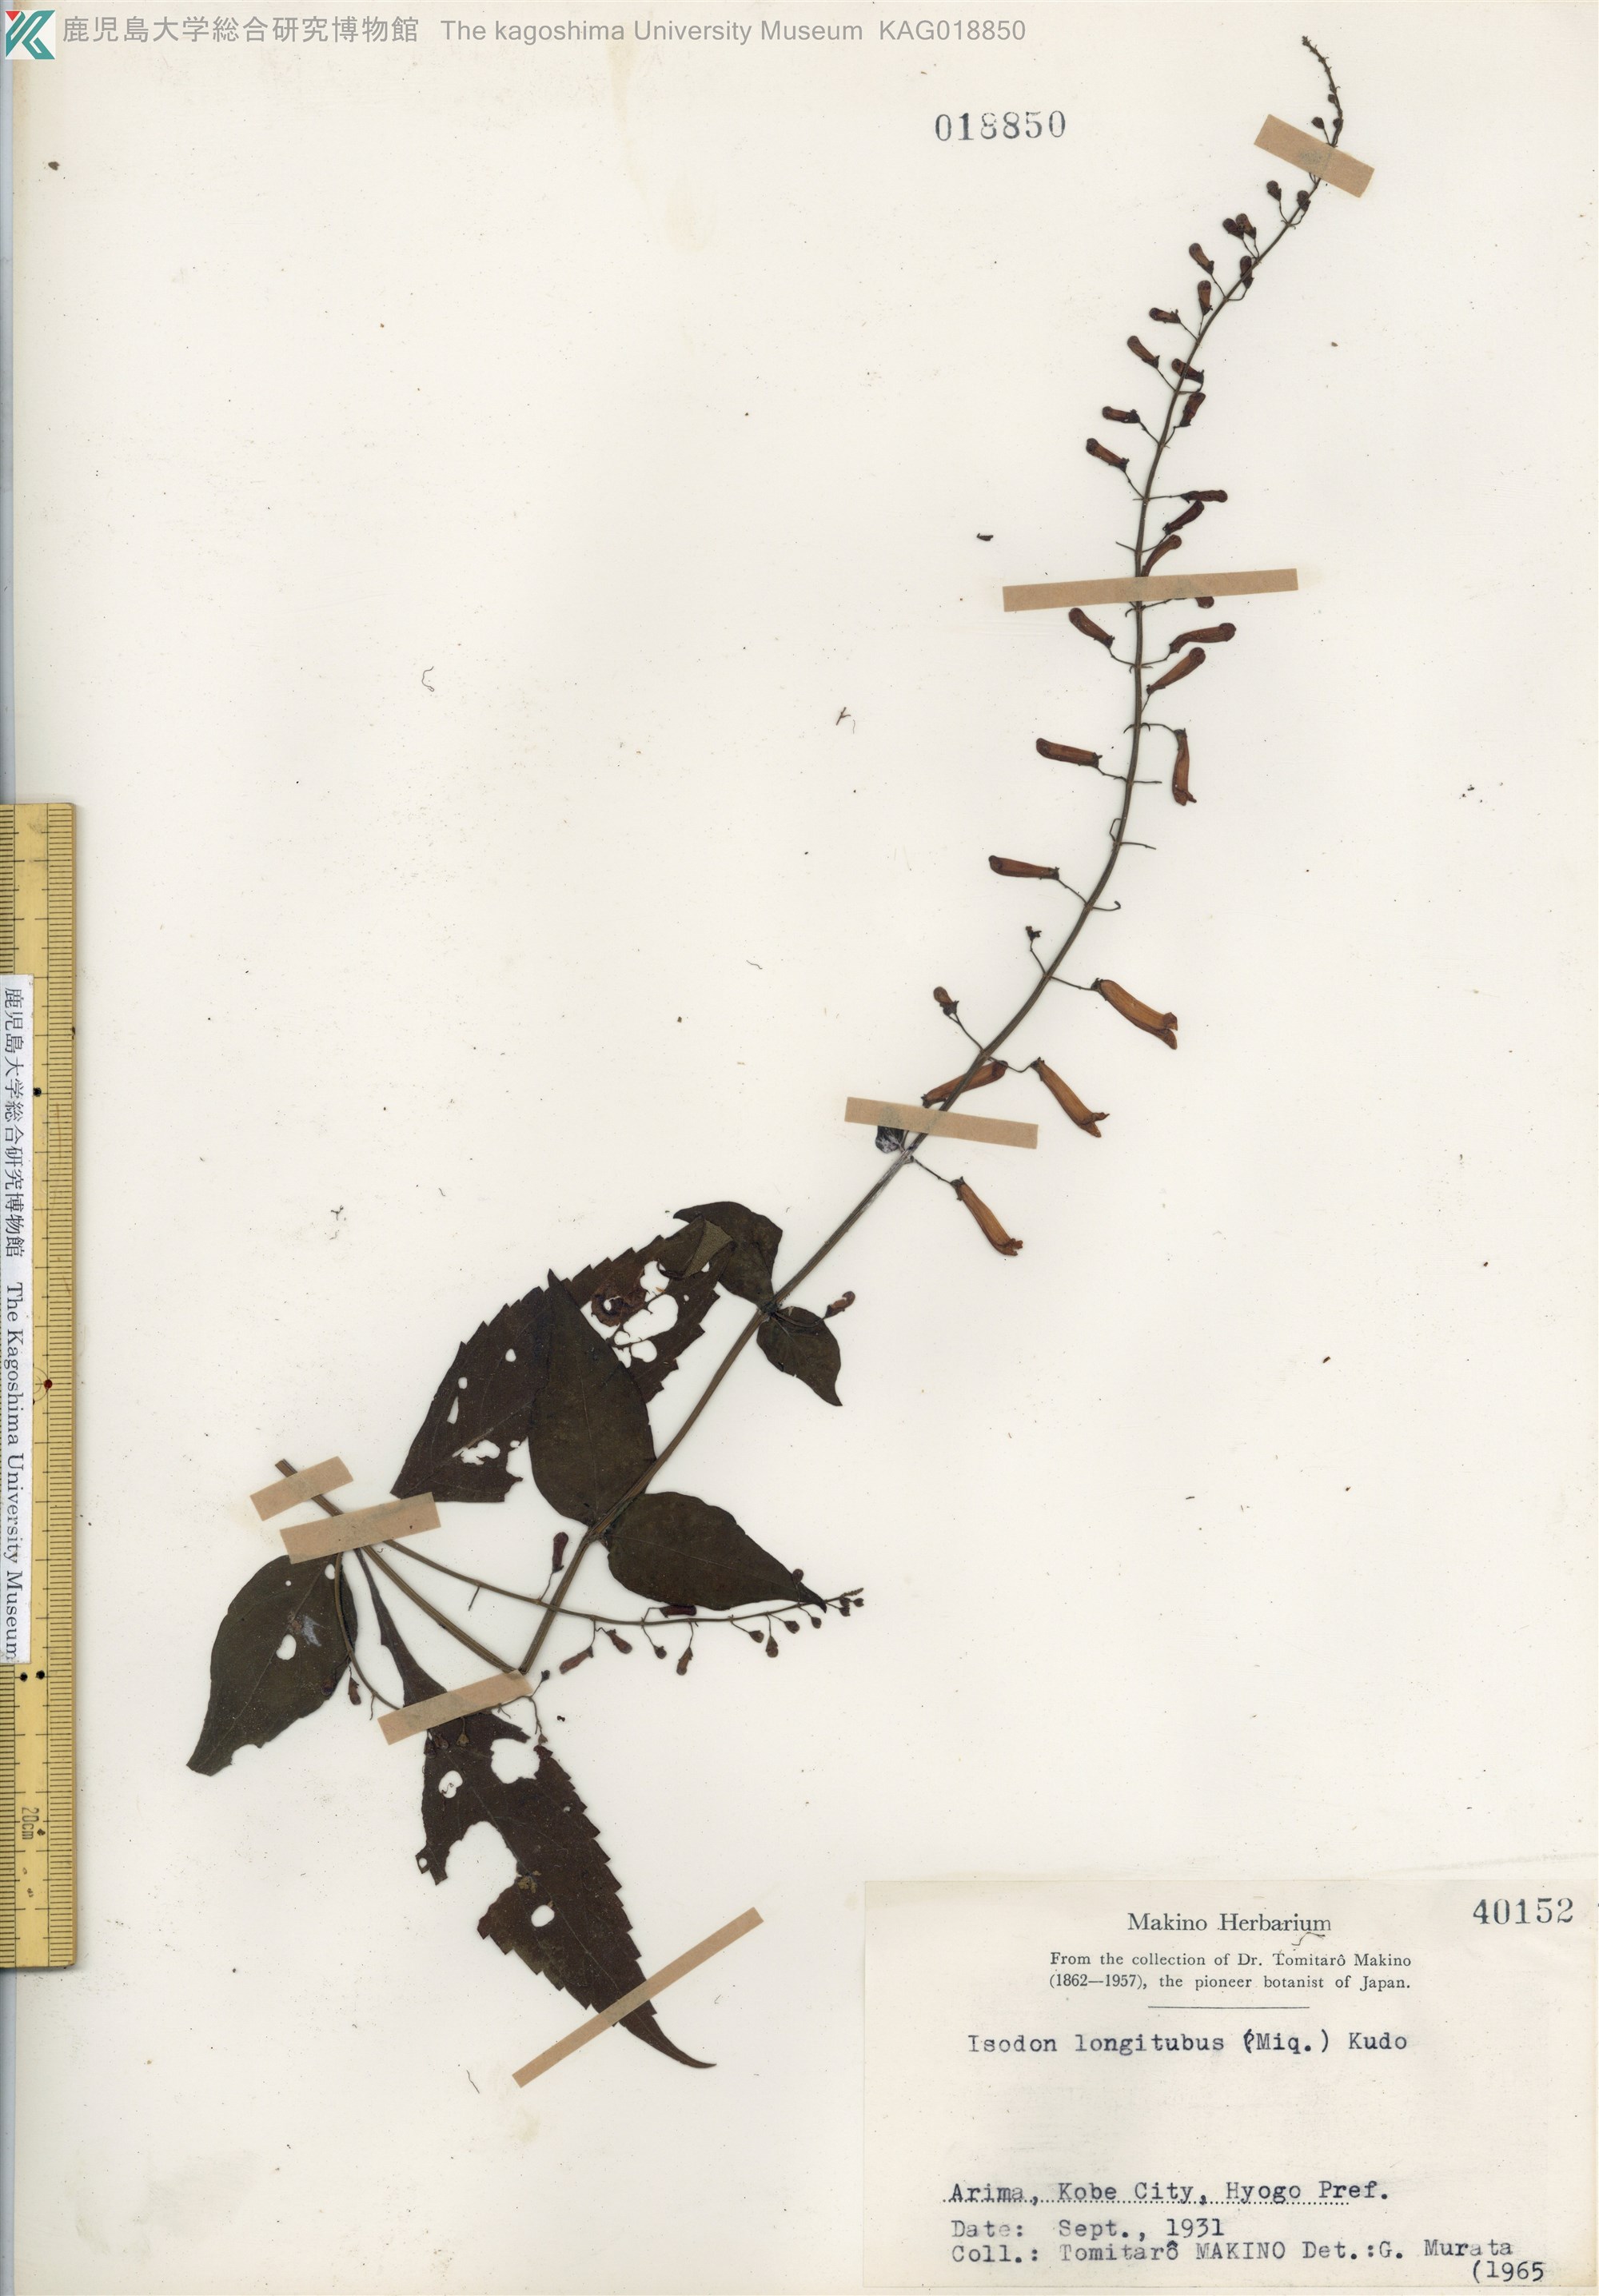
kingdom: Plantae
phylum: Tracheophyta
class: Magnoliopsida
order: Lamiales
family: Lamiaceae
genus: Isodon
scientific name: Isodon longitubus
